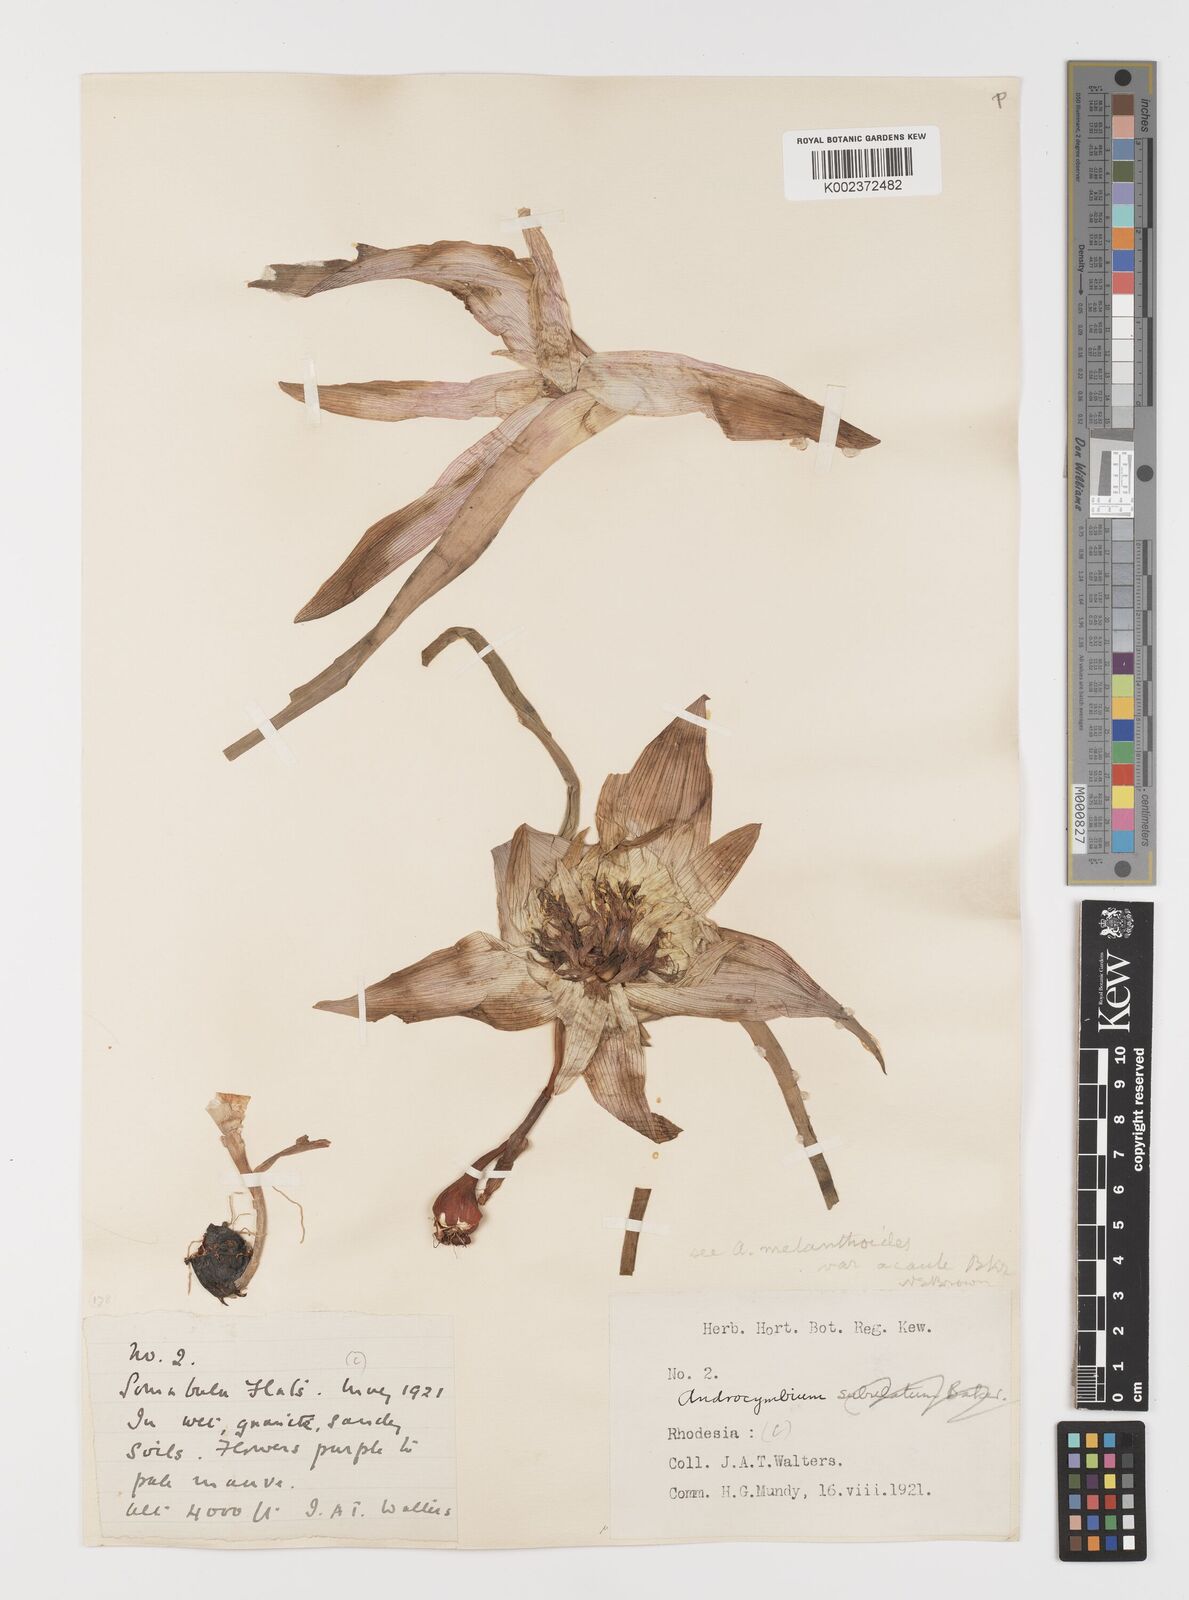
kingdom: Plantae
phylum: Tracheophyta
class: Liliopsida
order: Liliales
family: Colchicaceae
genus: Colchicum
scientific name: Colchicum melanthioides
